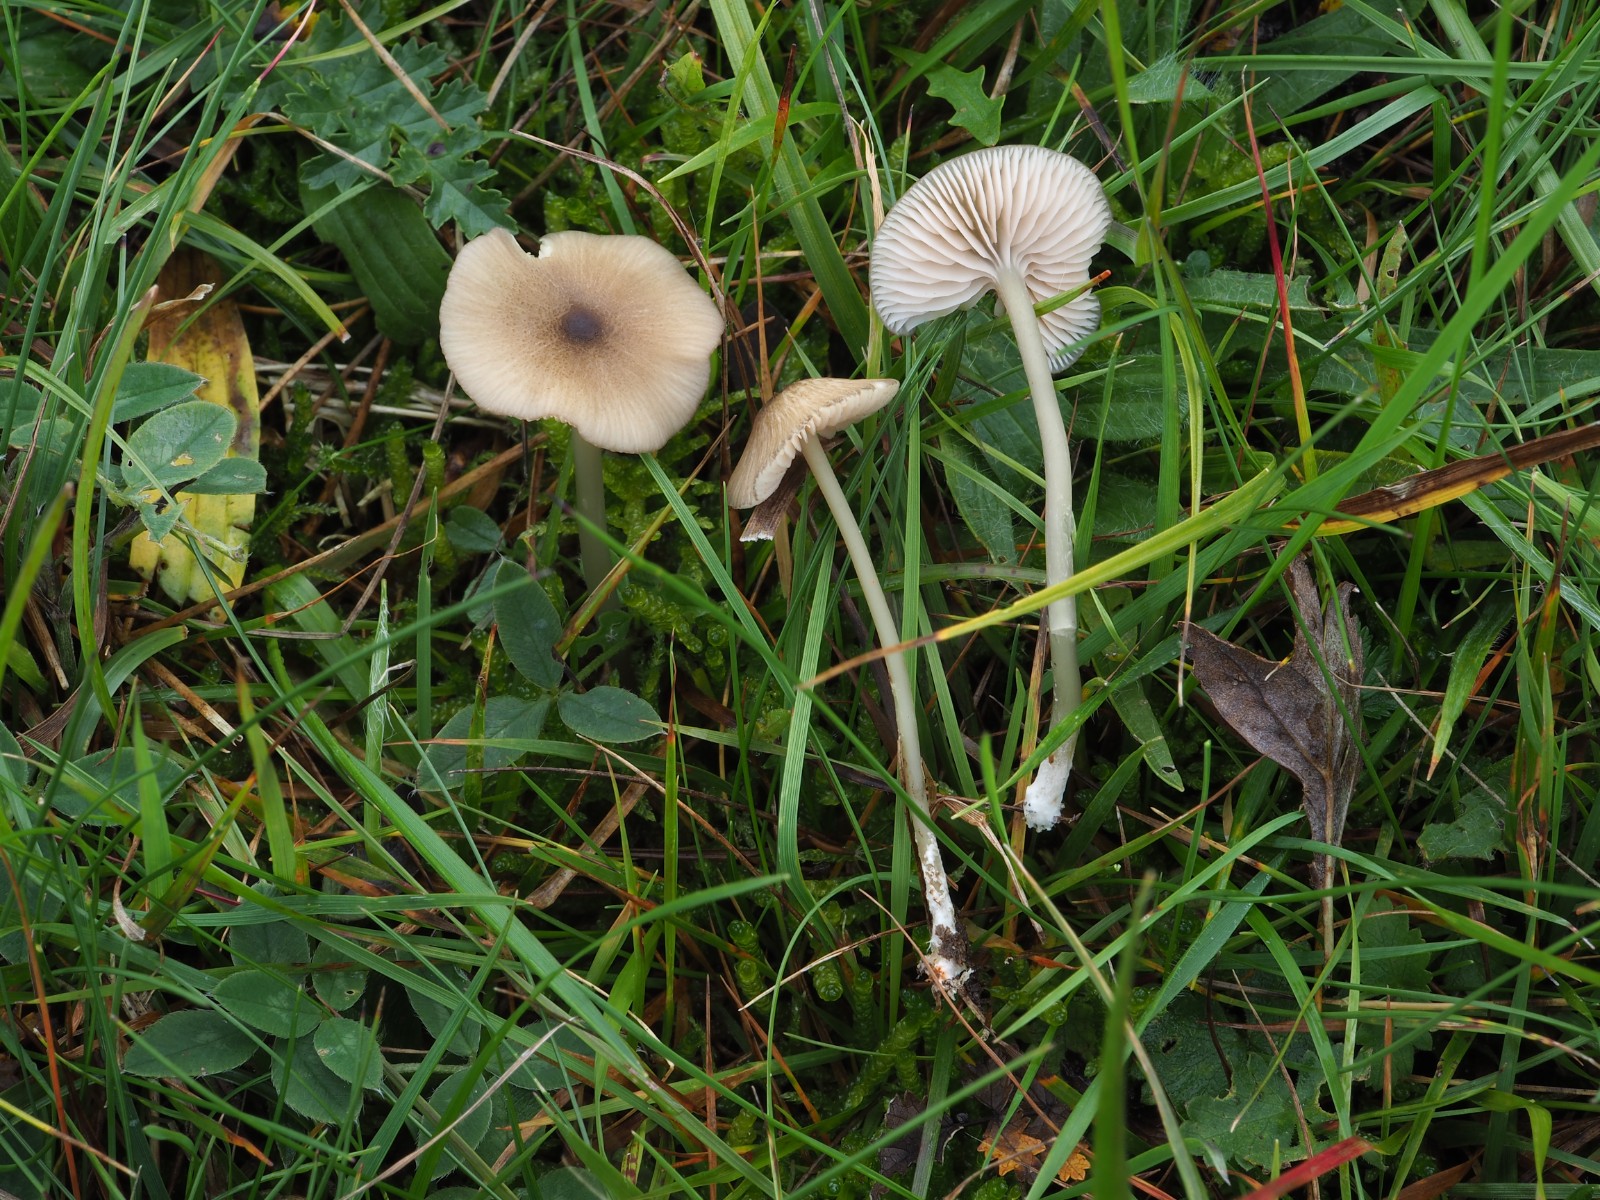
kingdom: Fungi
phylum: Basidiomycota
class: Agaricomycetes
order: Agaricales
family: Entolomataceae
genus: Entoloma
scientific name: Entoloma exile
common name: rødplettet rødblad
